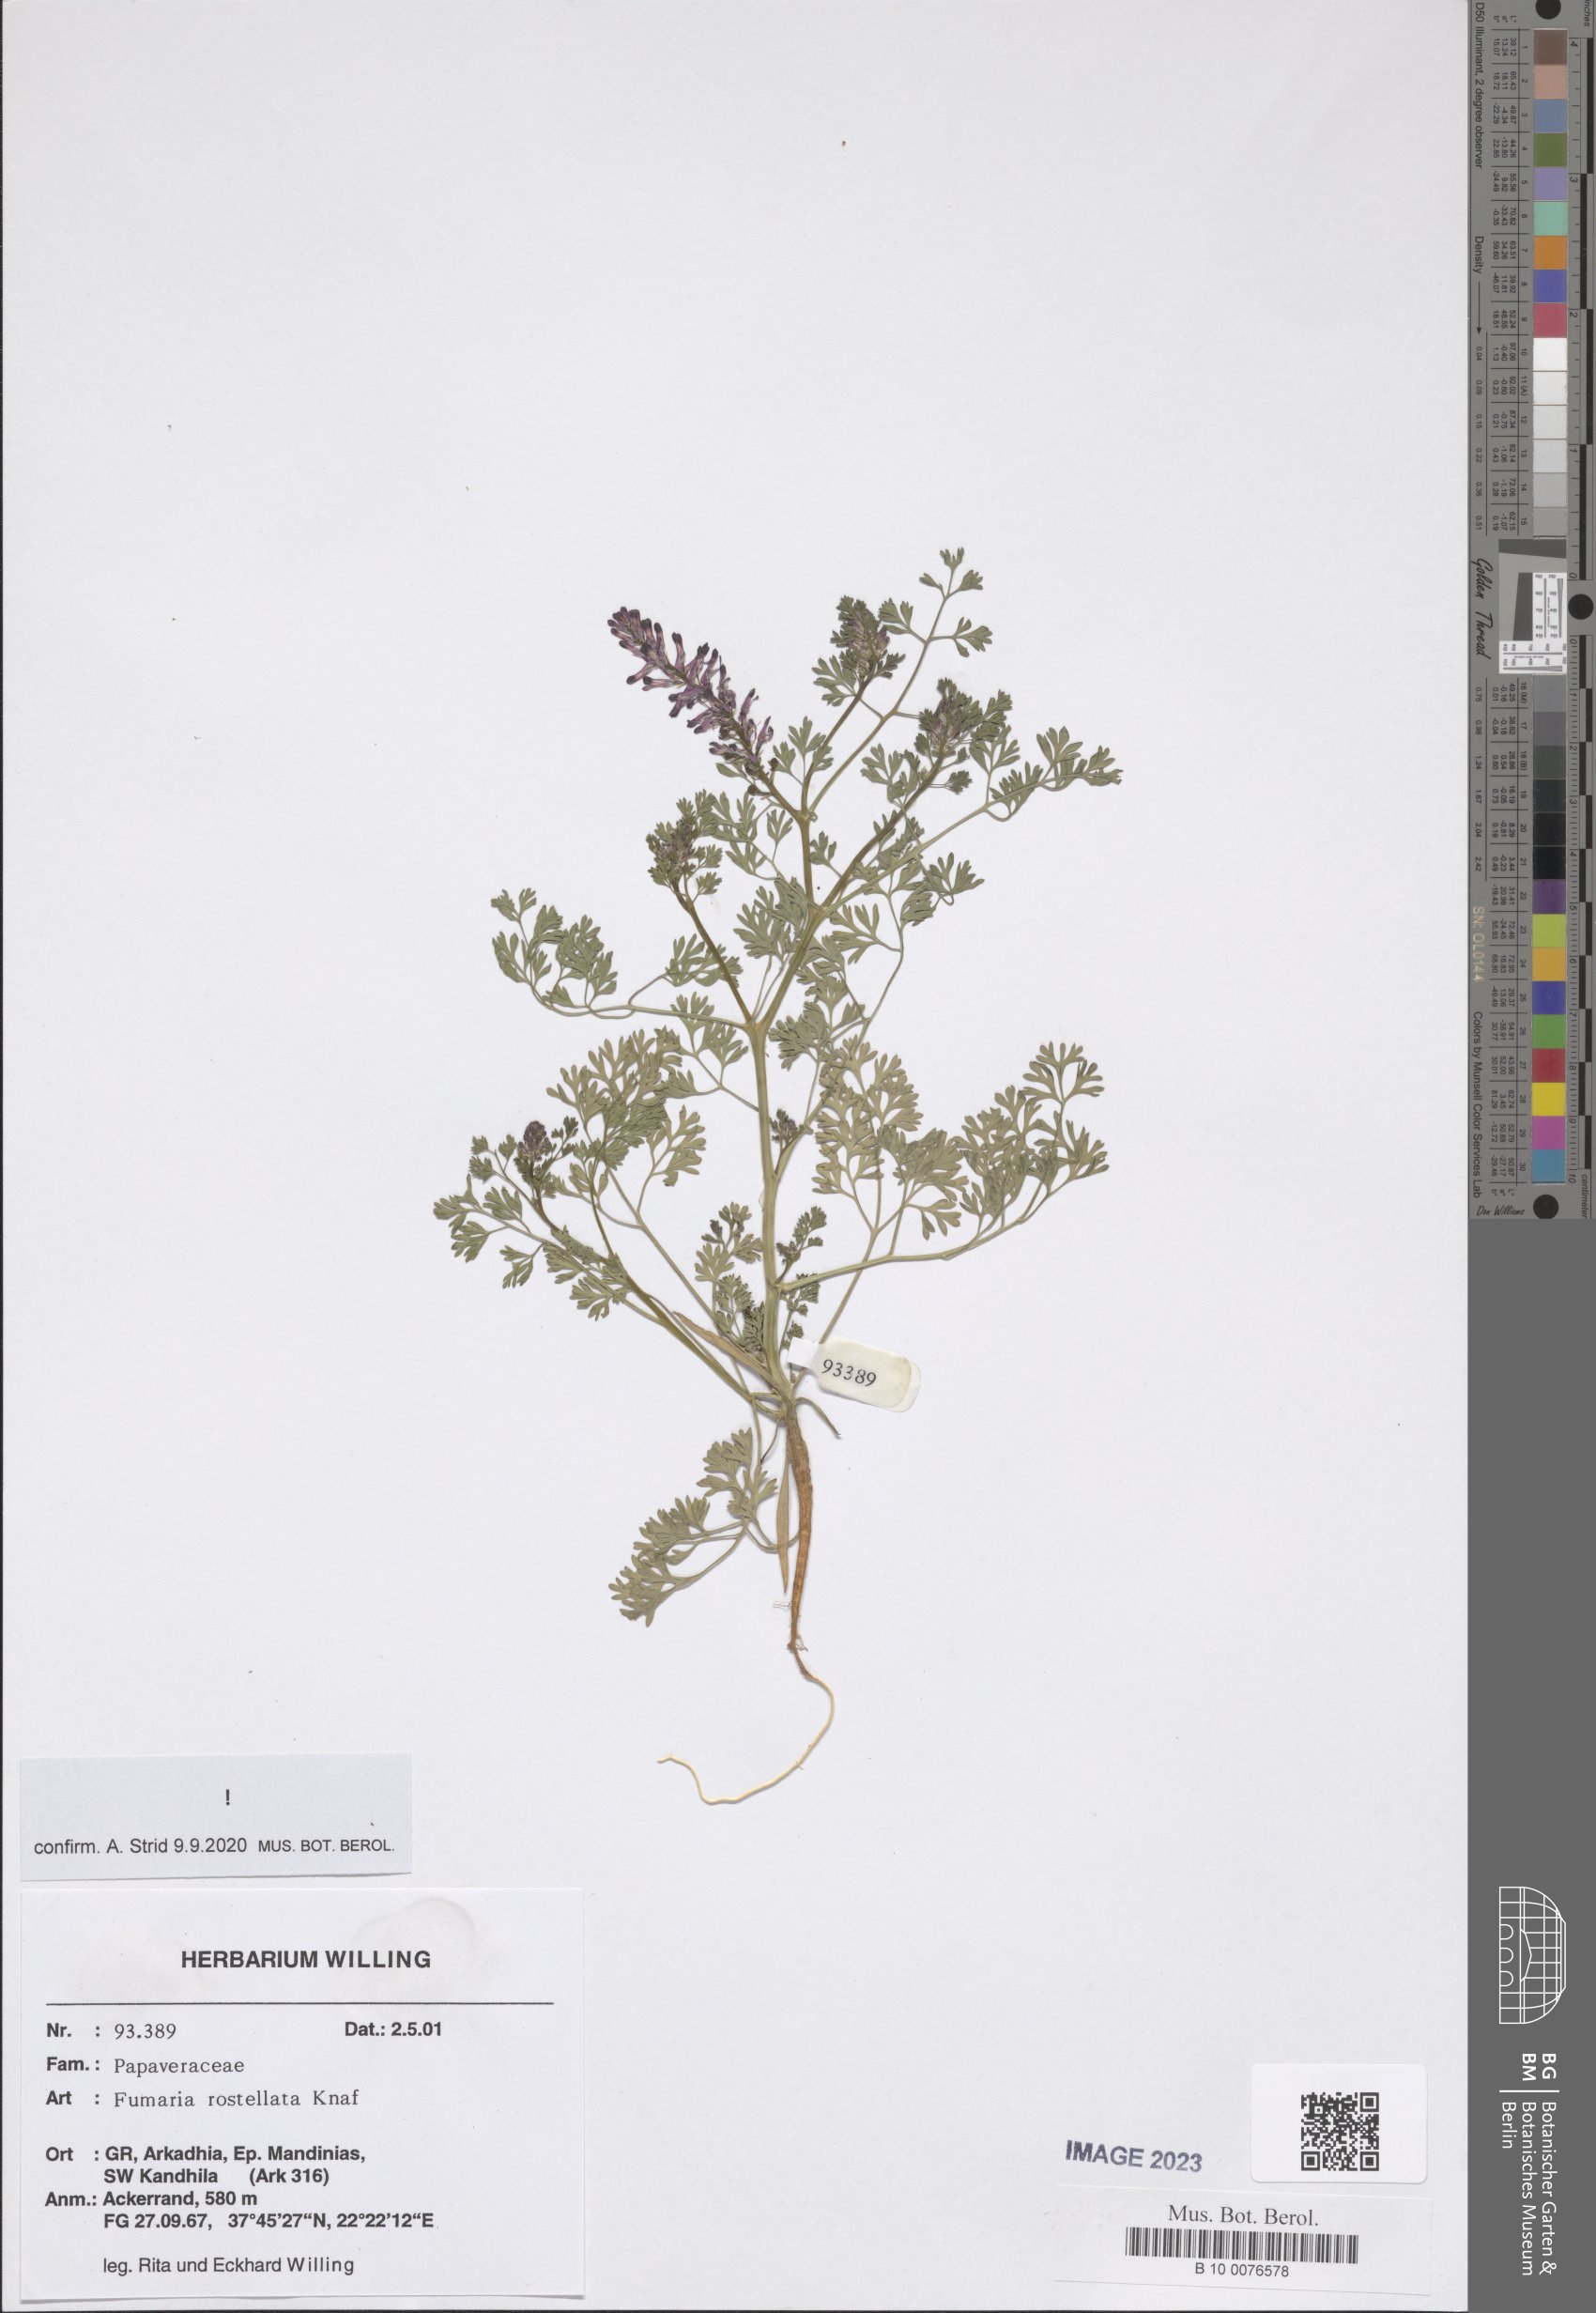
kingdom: Plantae
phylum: Tracheophyta
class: Magnoliopsida
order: Ranunculales
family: Papaveraceae
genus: Fumaria
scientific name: Fumaria rostellata
